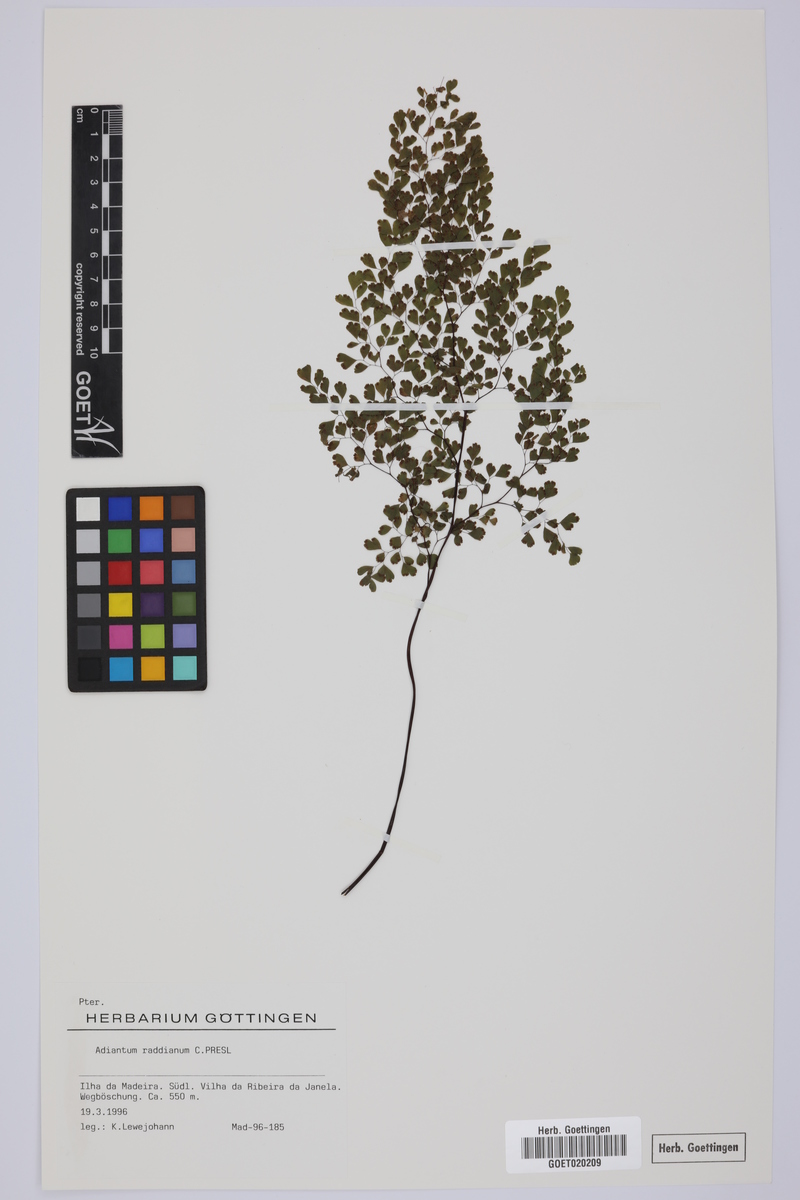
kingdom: Plantae
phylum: Tracheophyta
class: Polypodiopsida
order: Polypodiales
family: Pteridaceae
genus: Adiantum
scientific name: Adiantum raddianum
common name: Delta maidenhair fern
